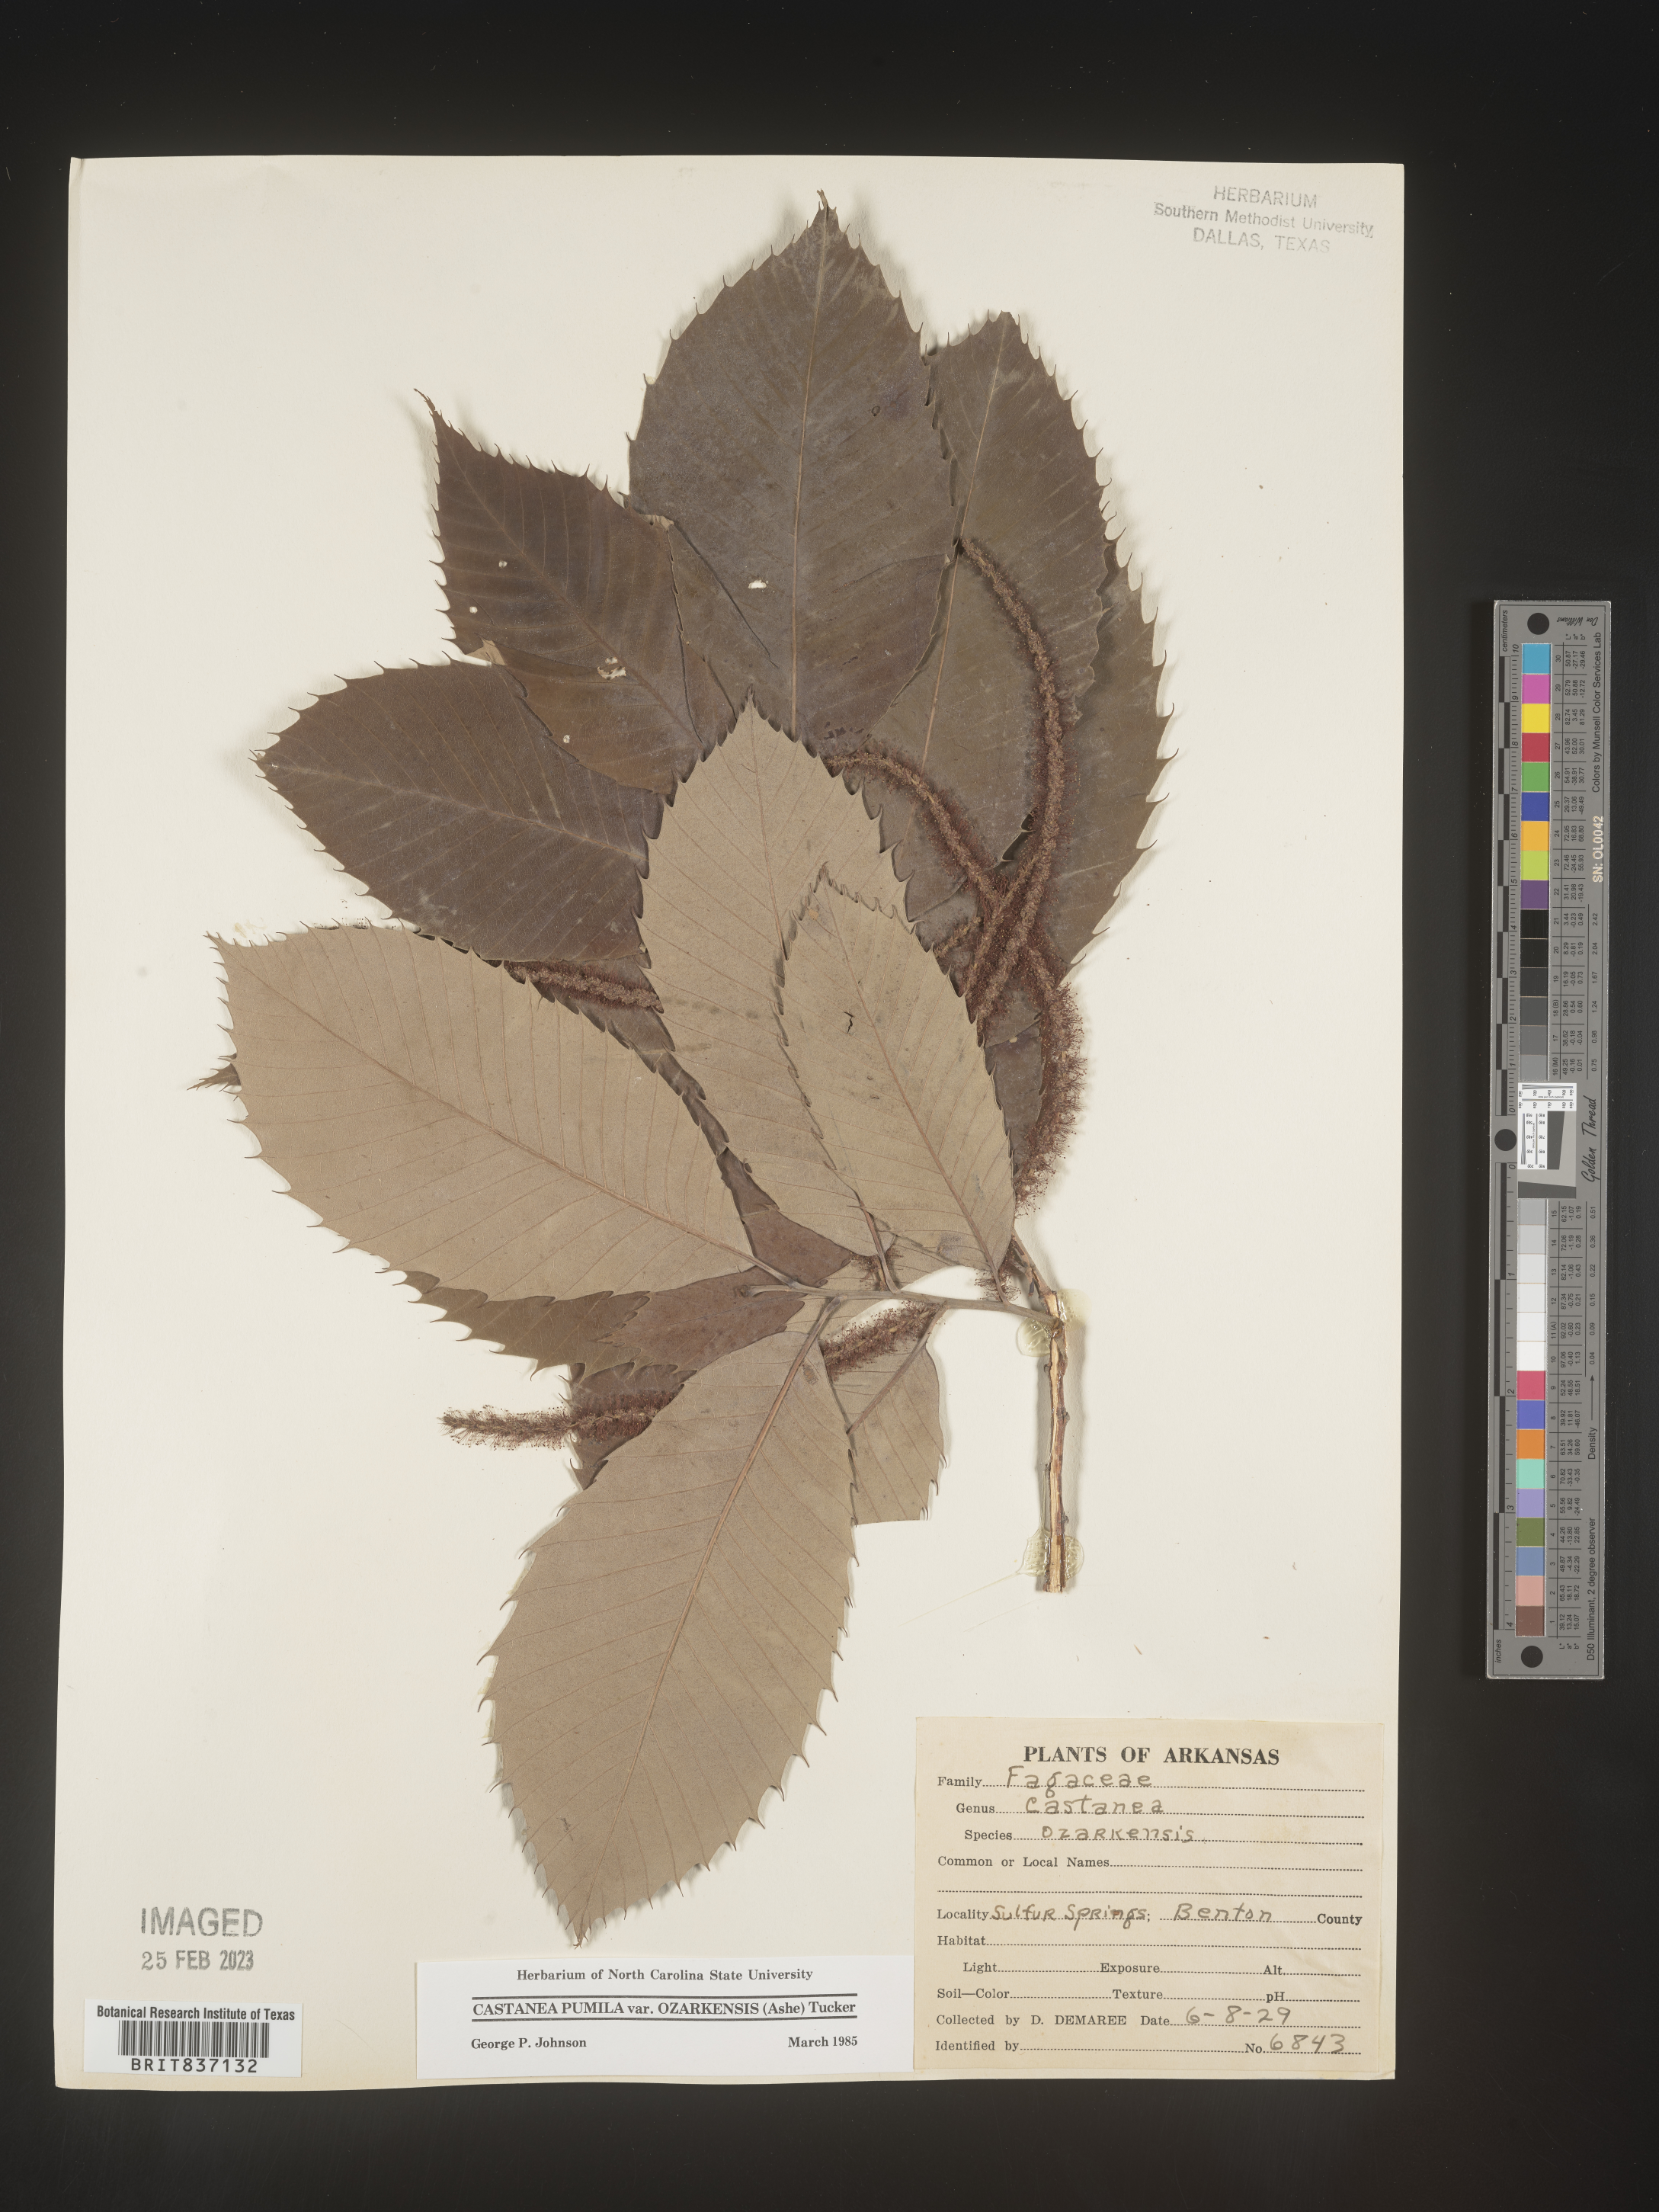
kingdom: Plantae
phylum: Tracheophyta
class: Magnoliopsida
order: Fagales
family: Fagaceae
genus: Castanea
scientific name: Castanea pumila
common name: Chinkapin
